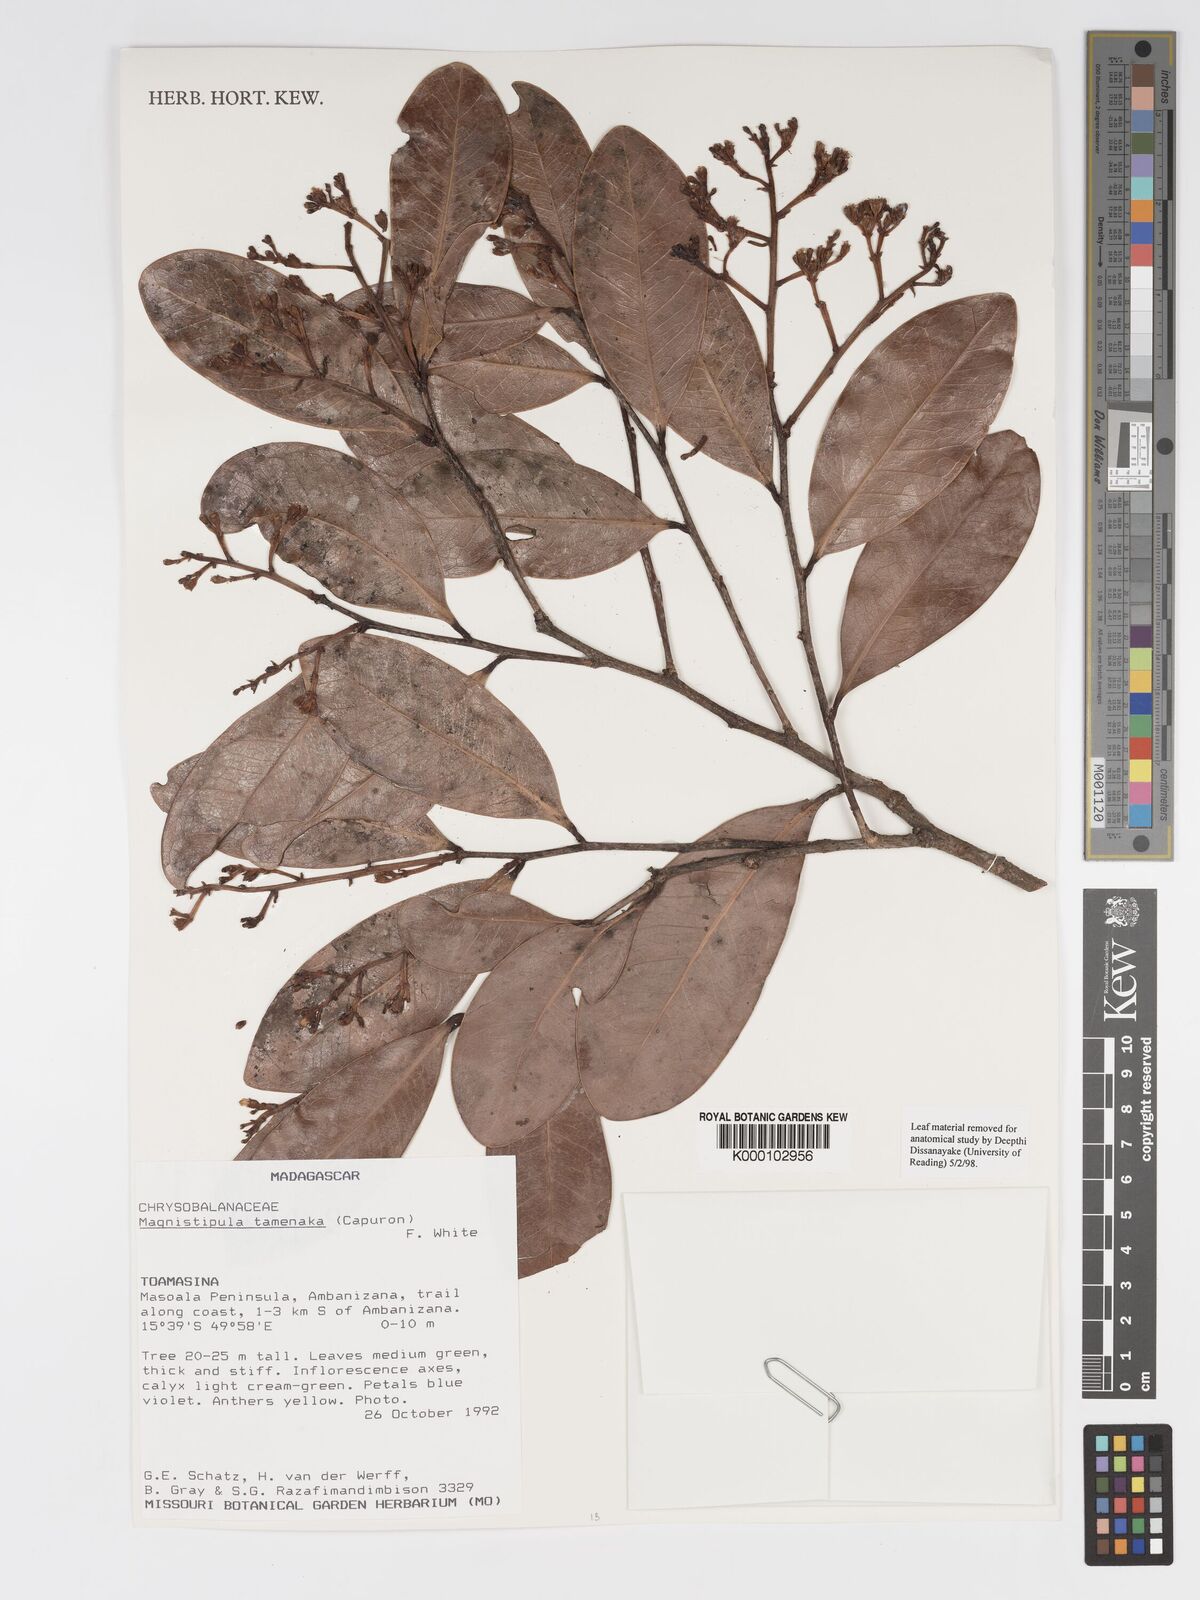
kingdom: Plantae
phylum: Tracheophyta
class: Magnoliopsida
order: Malpighiales
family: Chrysobalanaceae
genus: Magnistipula
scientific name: Magnistipula tamenaka
